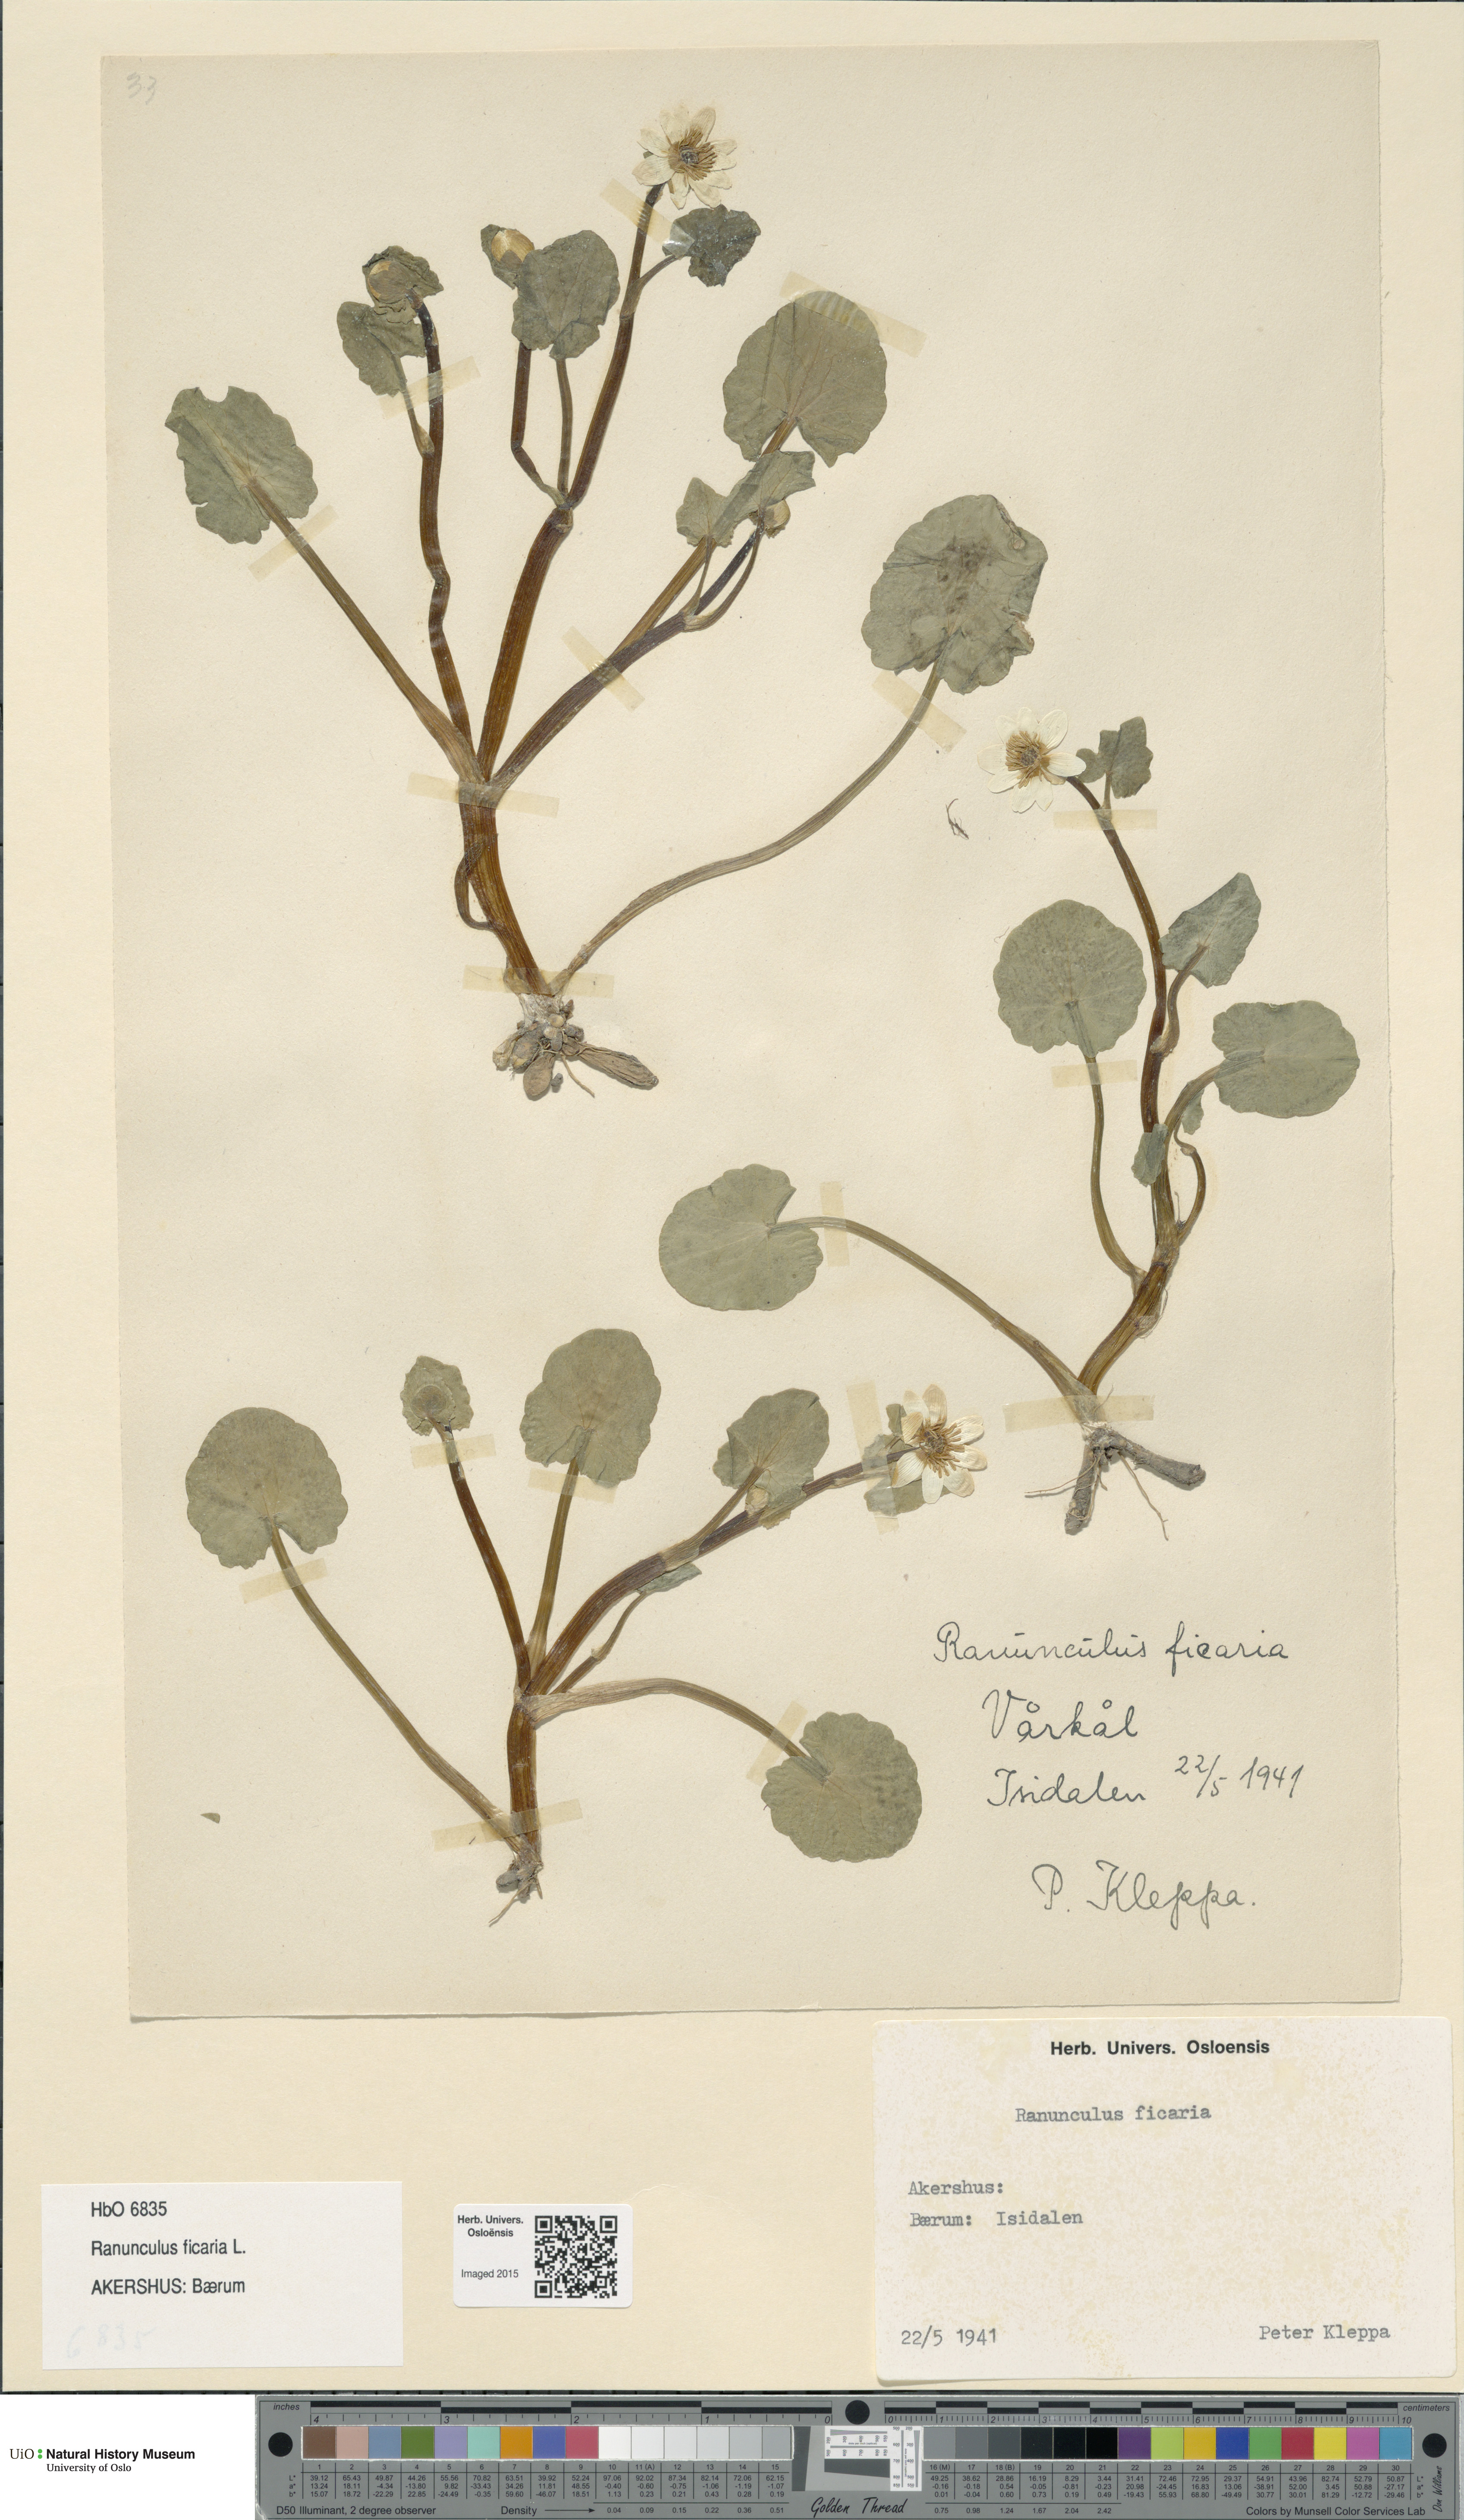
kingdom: Plantae
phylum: Tracheophyta
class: Magnoliopsida
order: Ranunculales
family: Ranunculaceae
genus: Ficaria
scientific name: Ficaria verna
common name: Lesser celandine
